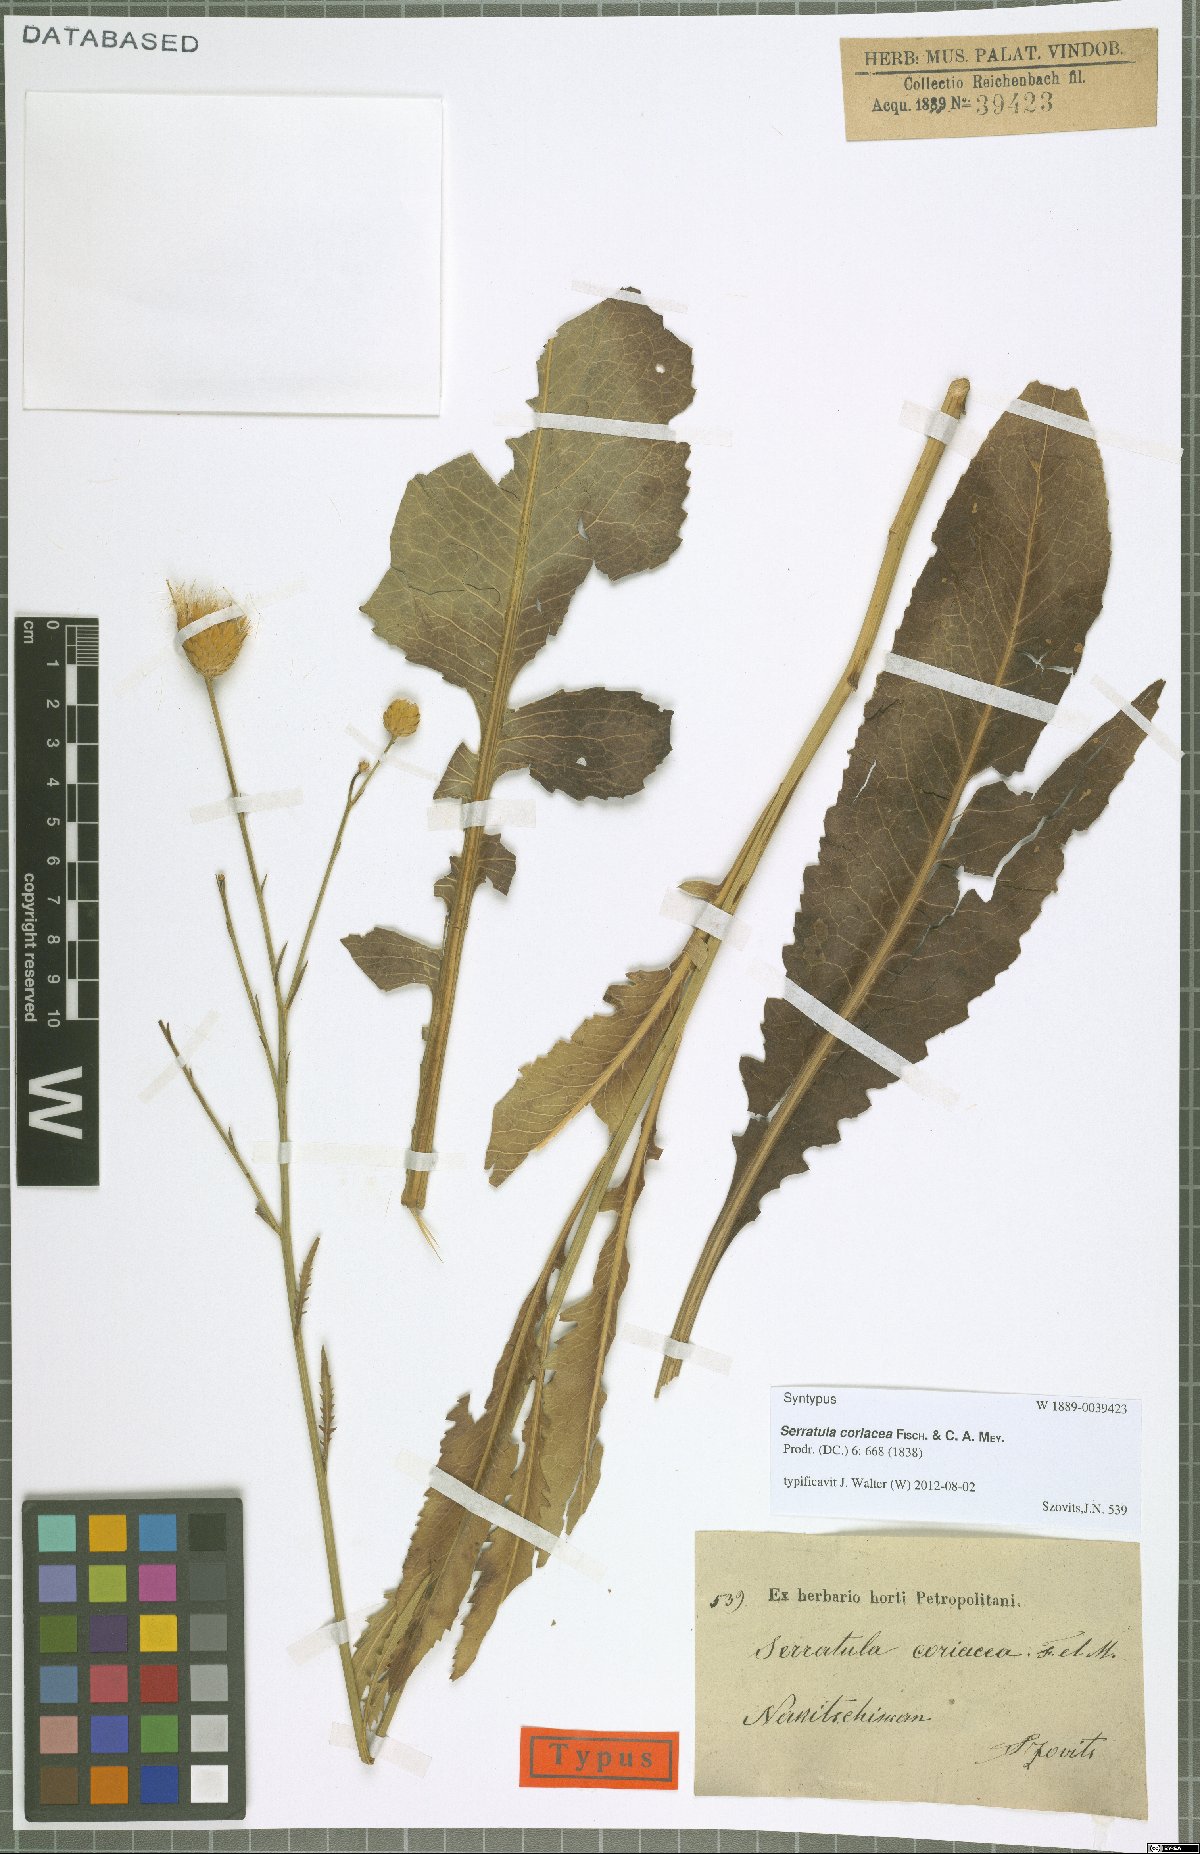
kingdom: Plantae
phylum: Tracheophyta
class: Magnoliopsida
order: Asterales
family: Asteraceae
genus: Serratula
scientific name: Serratula coriacea
